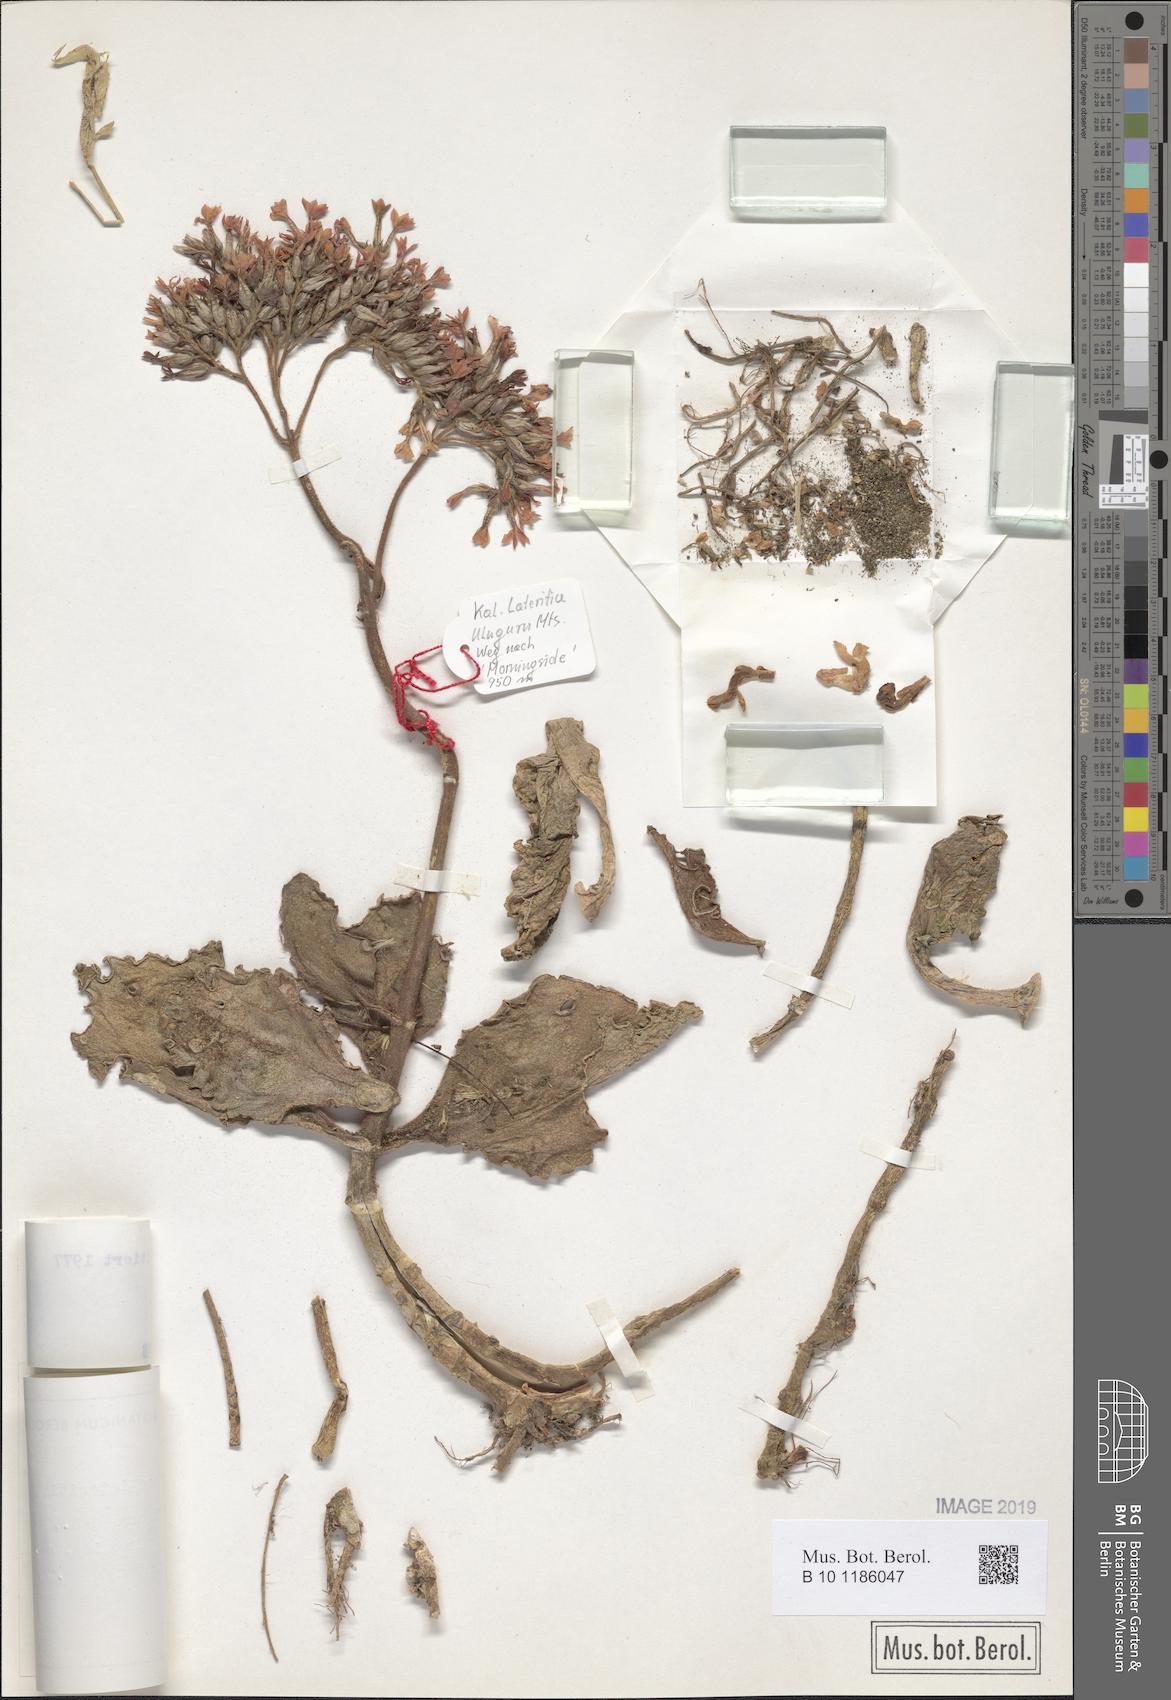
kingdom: Plantae
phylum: Tracheophyta
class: Magnoliopsida
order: Saxifragales
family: Crassulaceae
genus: Kalanchoe
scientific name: Kalanchoe lateritia
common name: Kalanchoe
